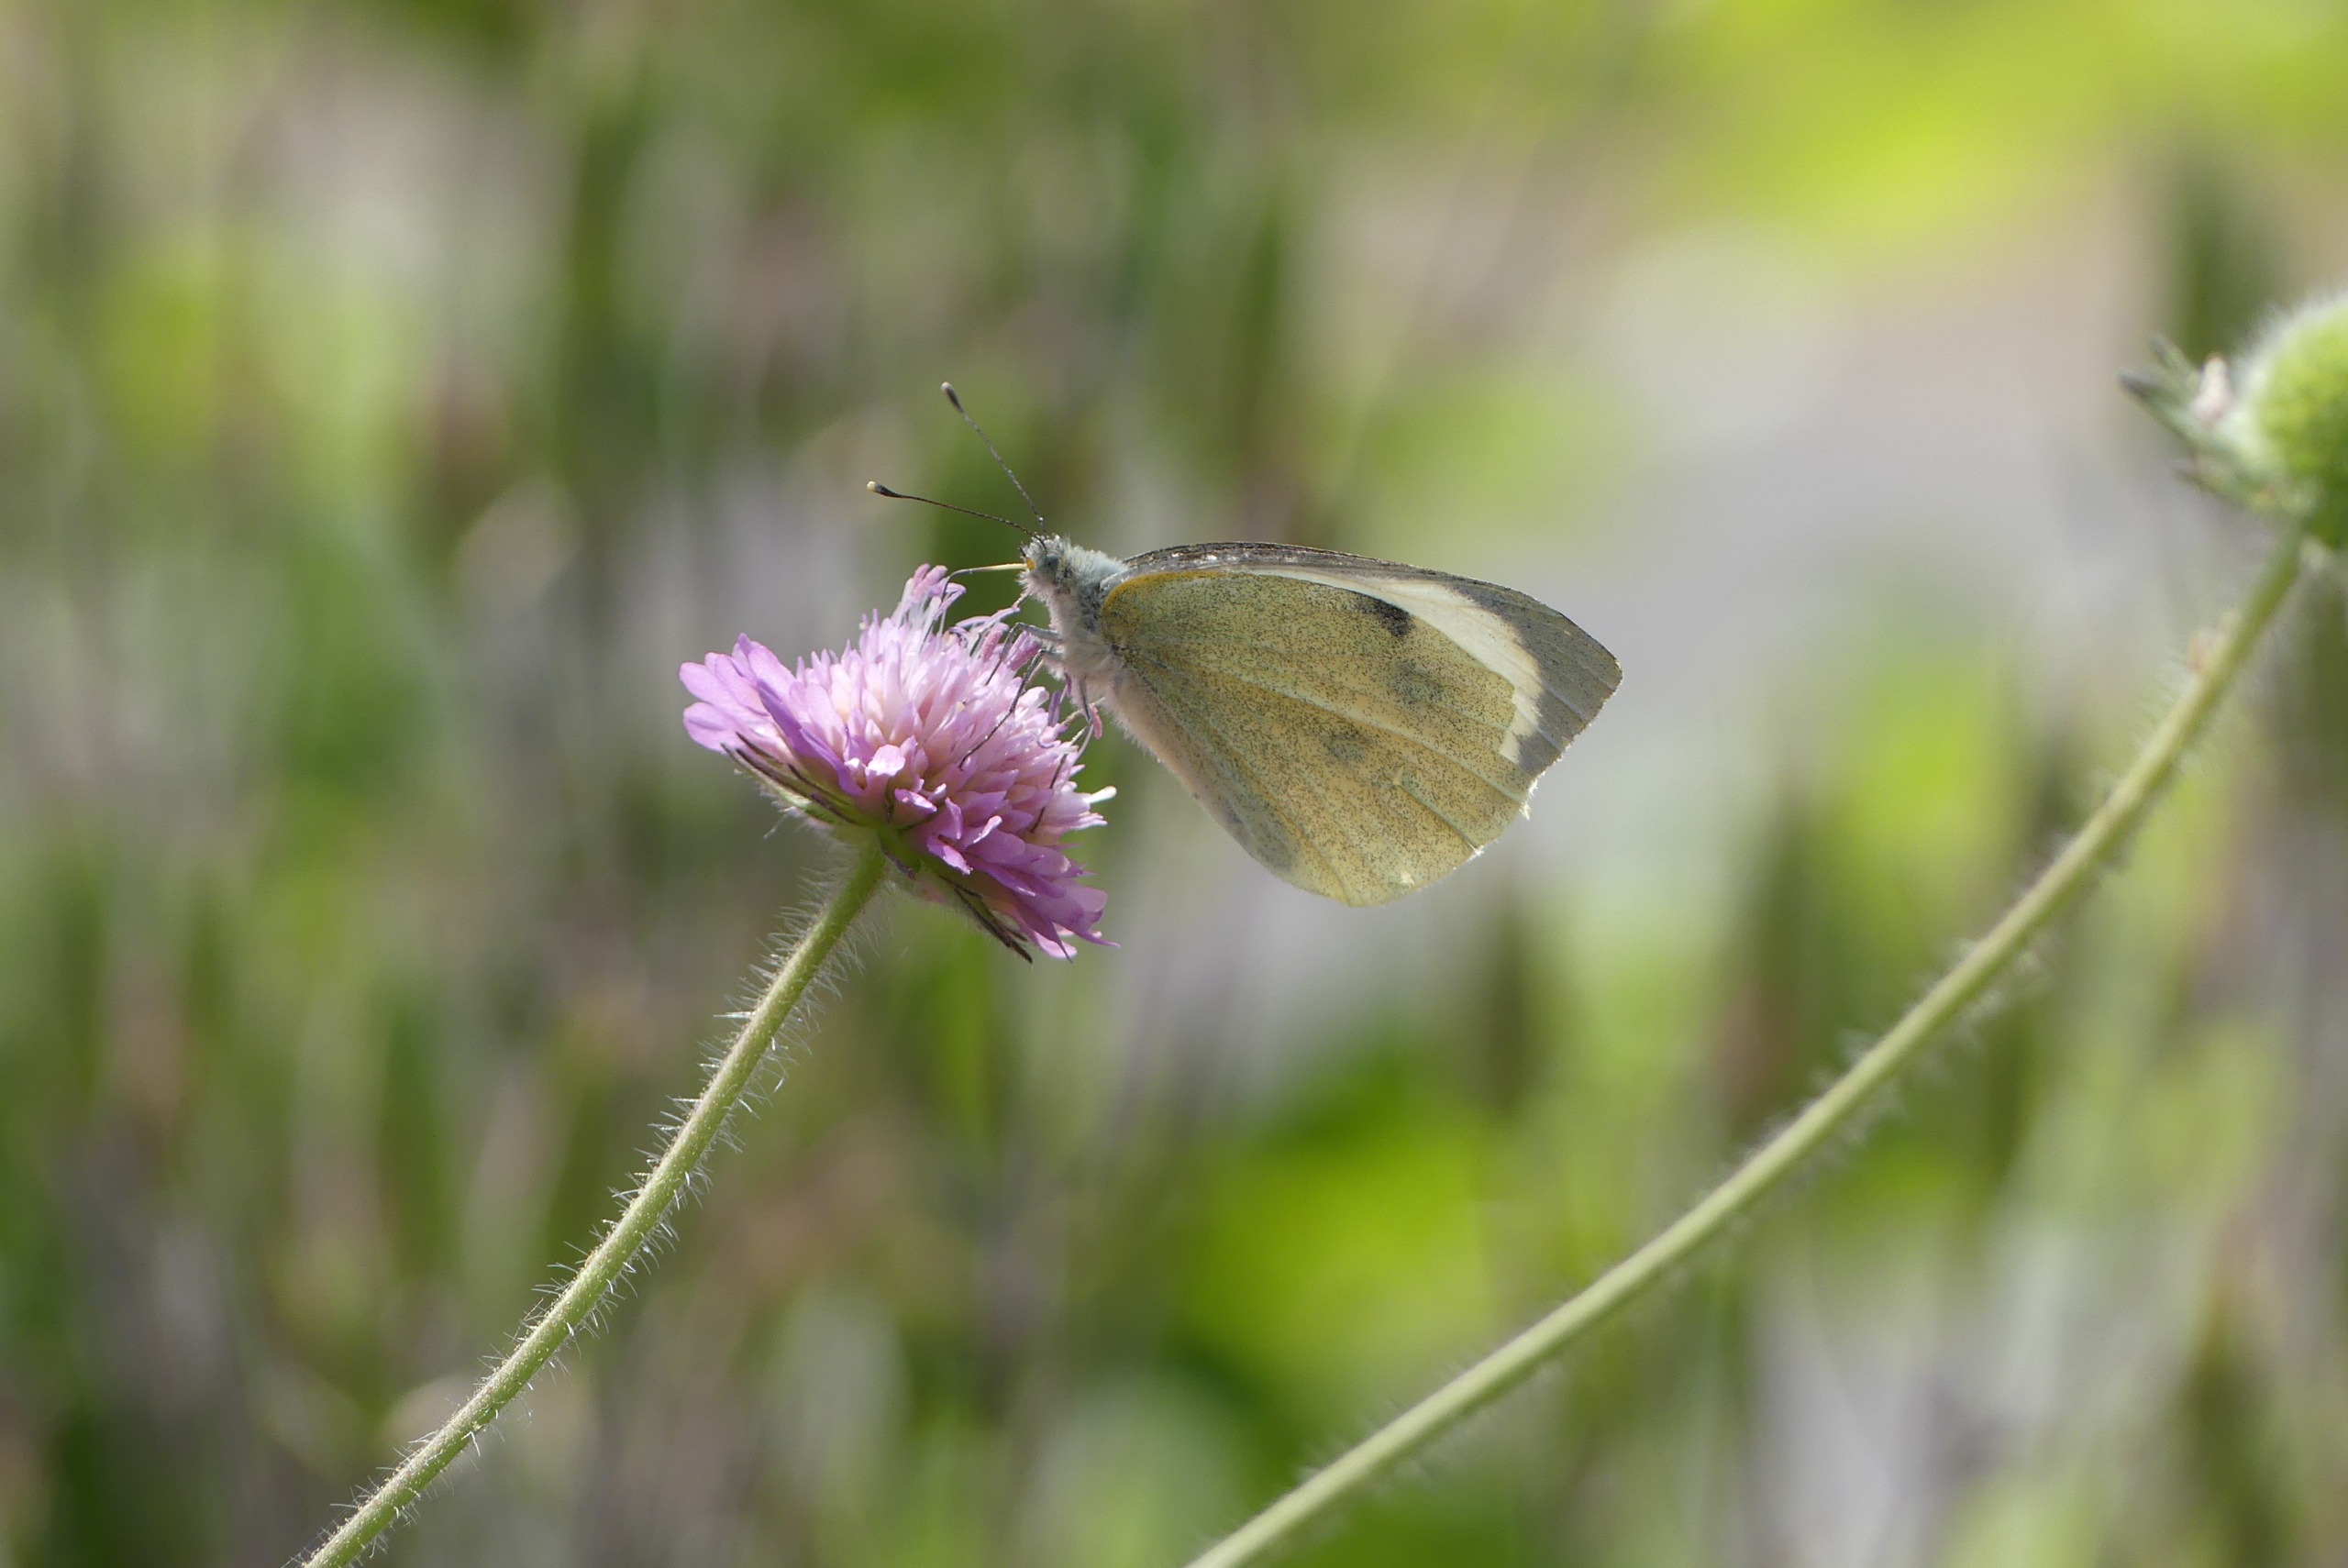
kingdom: Animalia
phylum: Arthropoda
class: Insecta
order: Lepidoptera
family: Pieridae
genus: Pieris
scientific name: Pieris brassicae
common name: Stor kålsommerfugl
